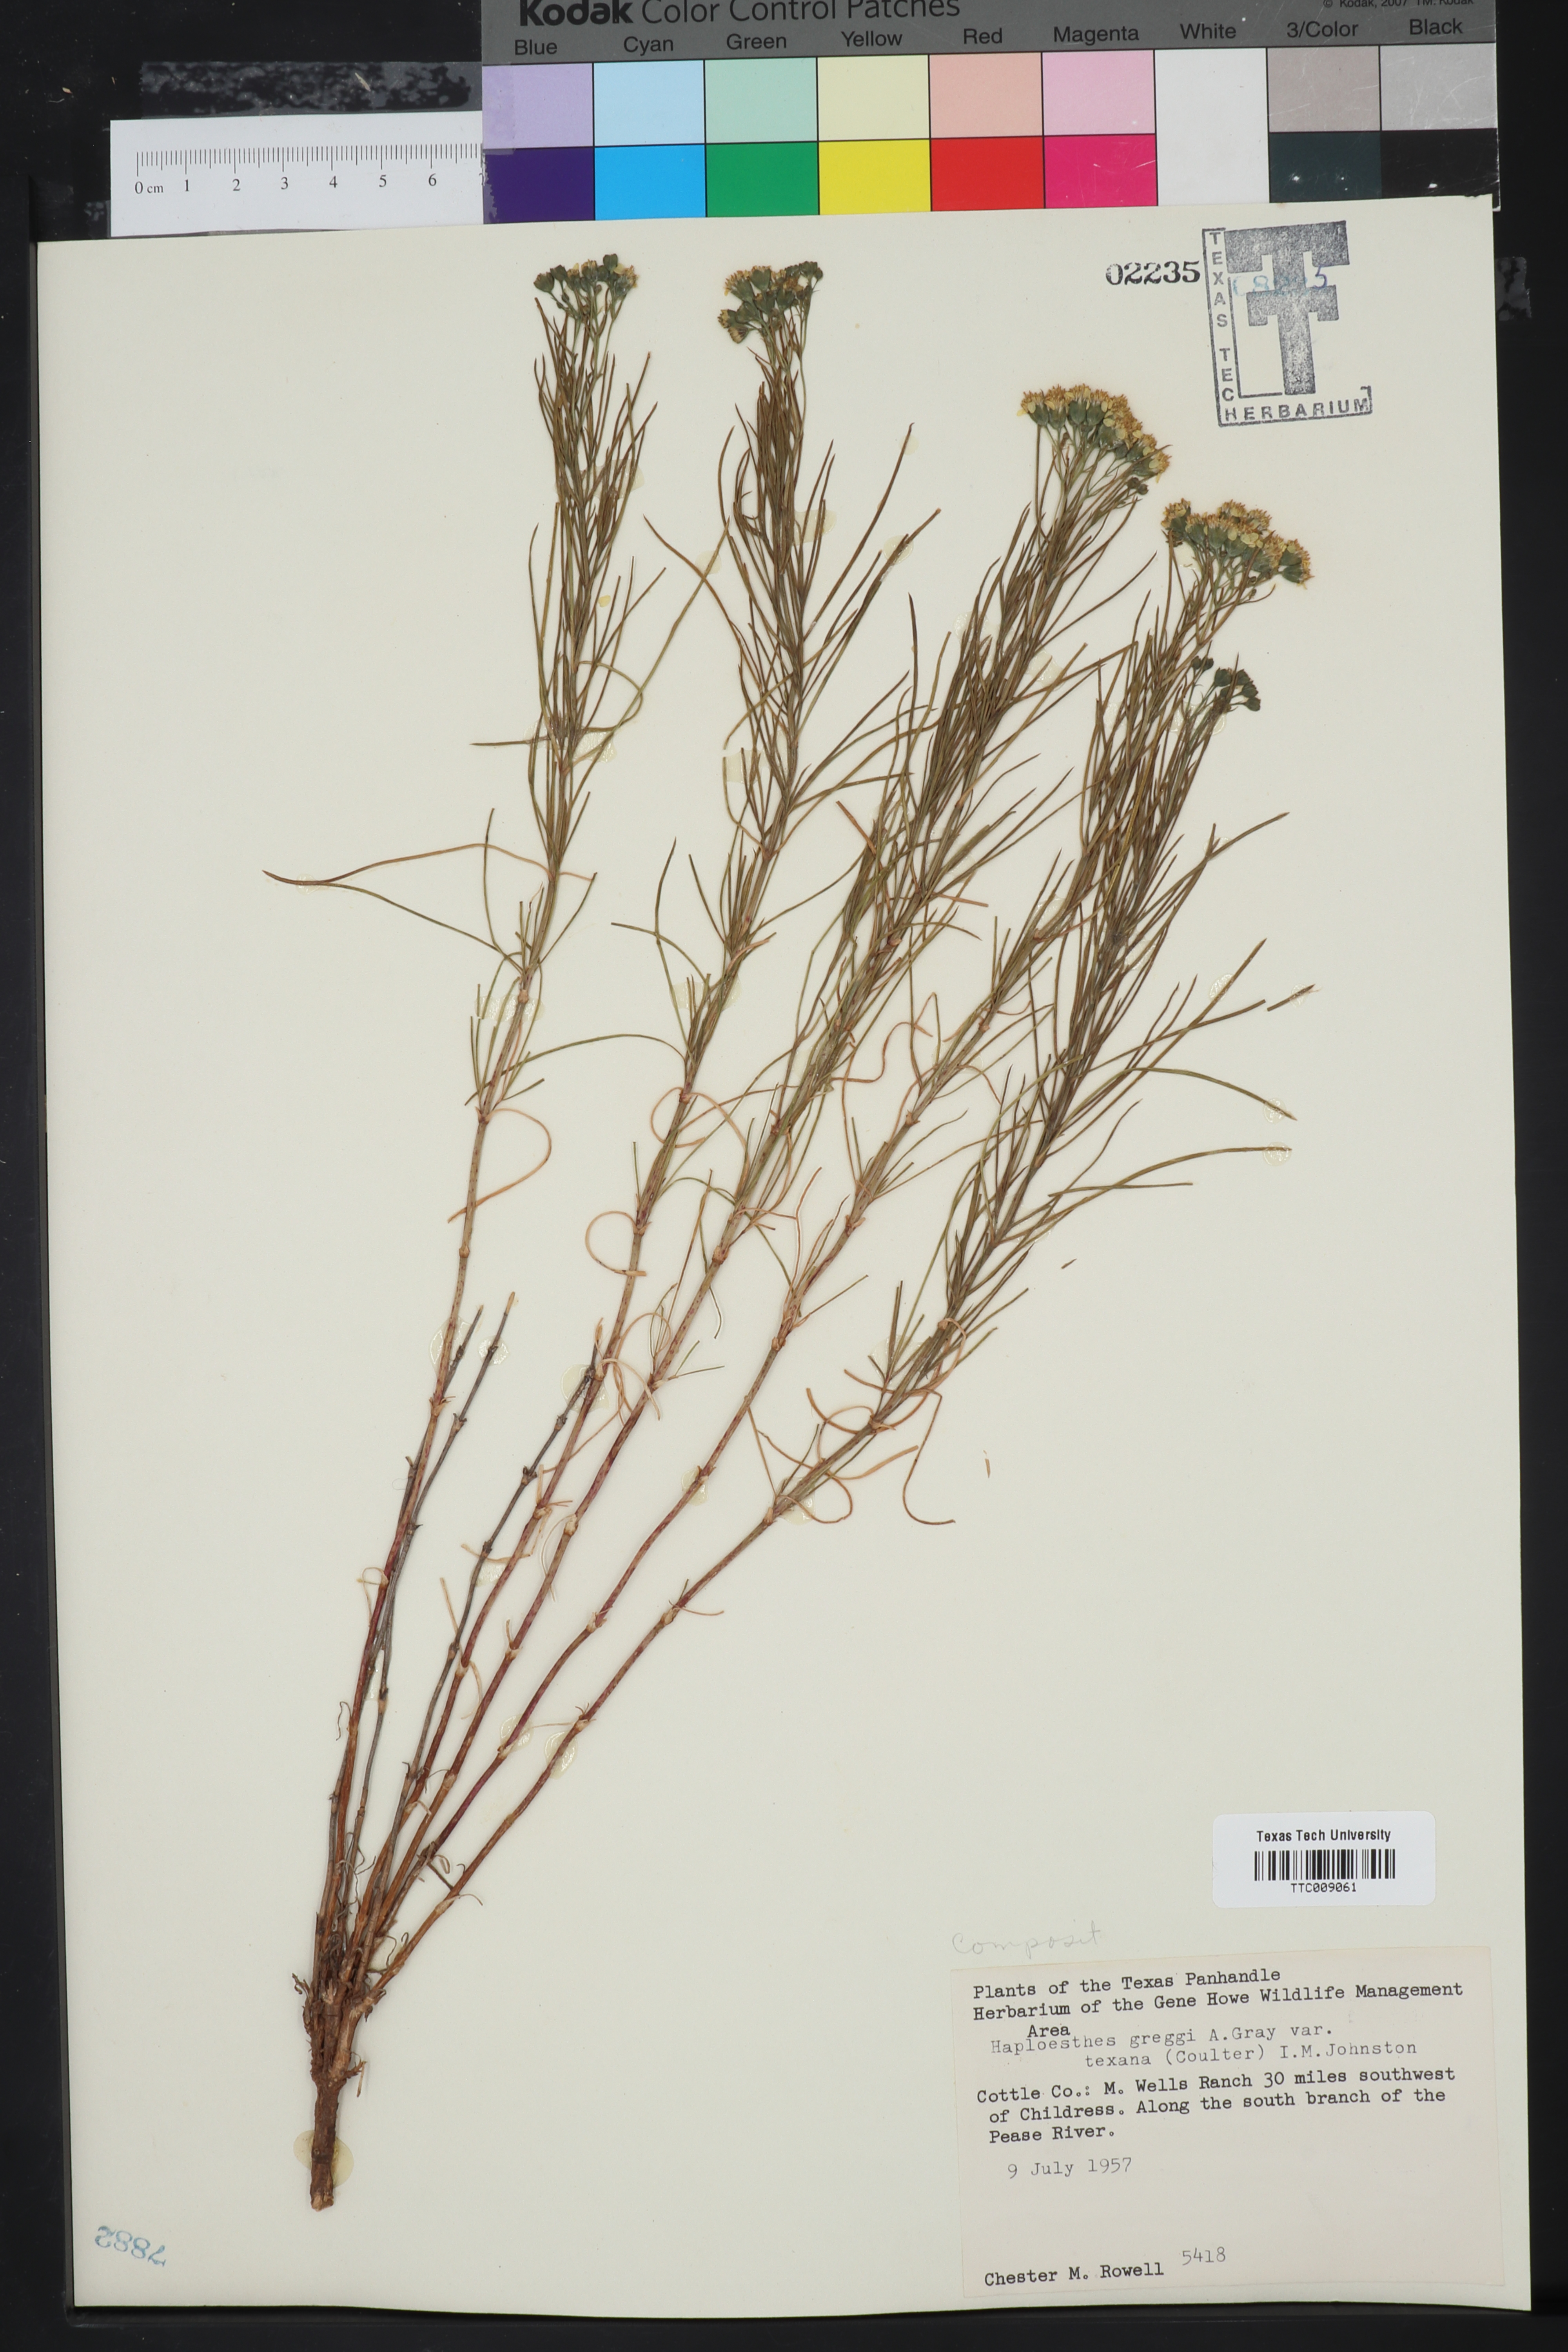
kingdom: Plantae
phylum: Tracheophyta
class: Magnoliopsida
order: Asterales
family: Asteraceae
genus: Haploesthes
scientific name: Haploesthes greggii
